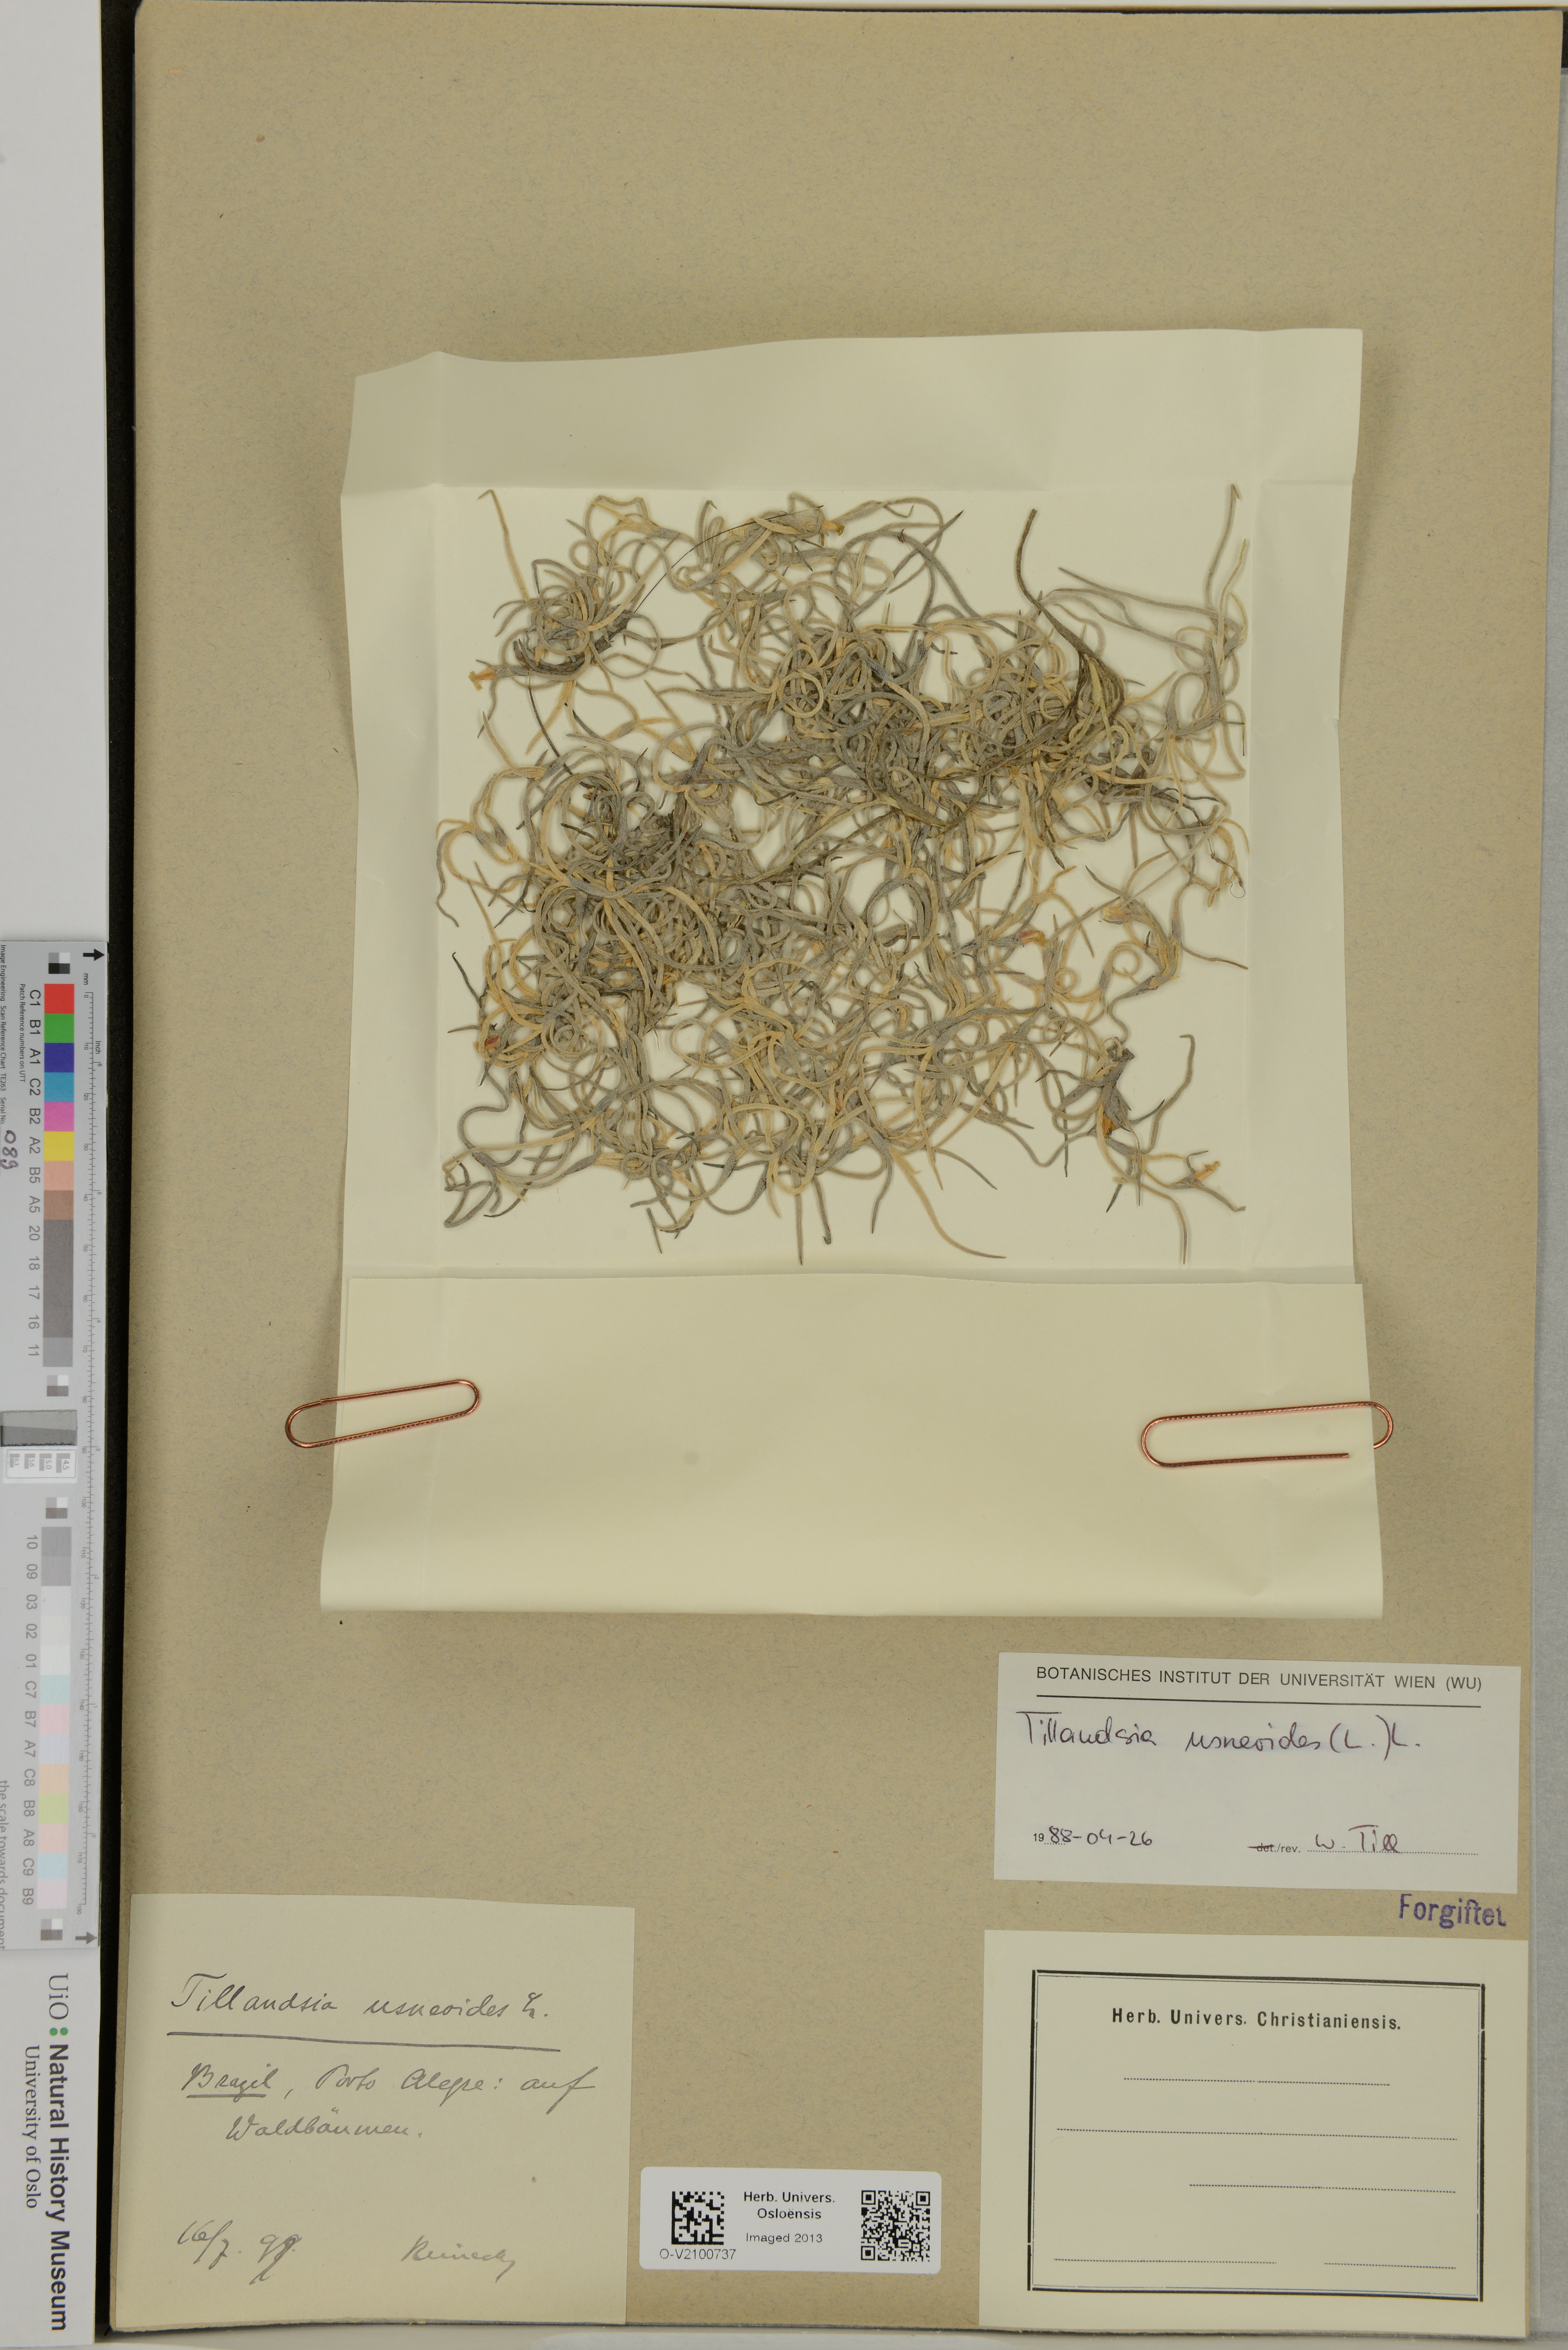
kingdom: Plantae
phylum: Tracheophyta
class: Liliopsida
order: Poales
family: Bromeliaceae
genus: Tillandsia
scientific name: Tillandsia usneoides
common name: Spanish moss
